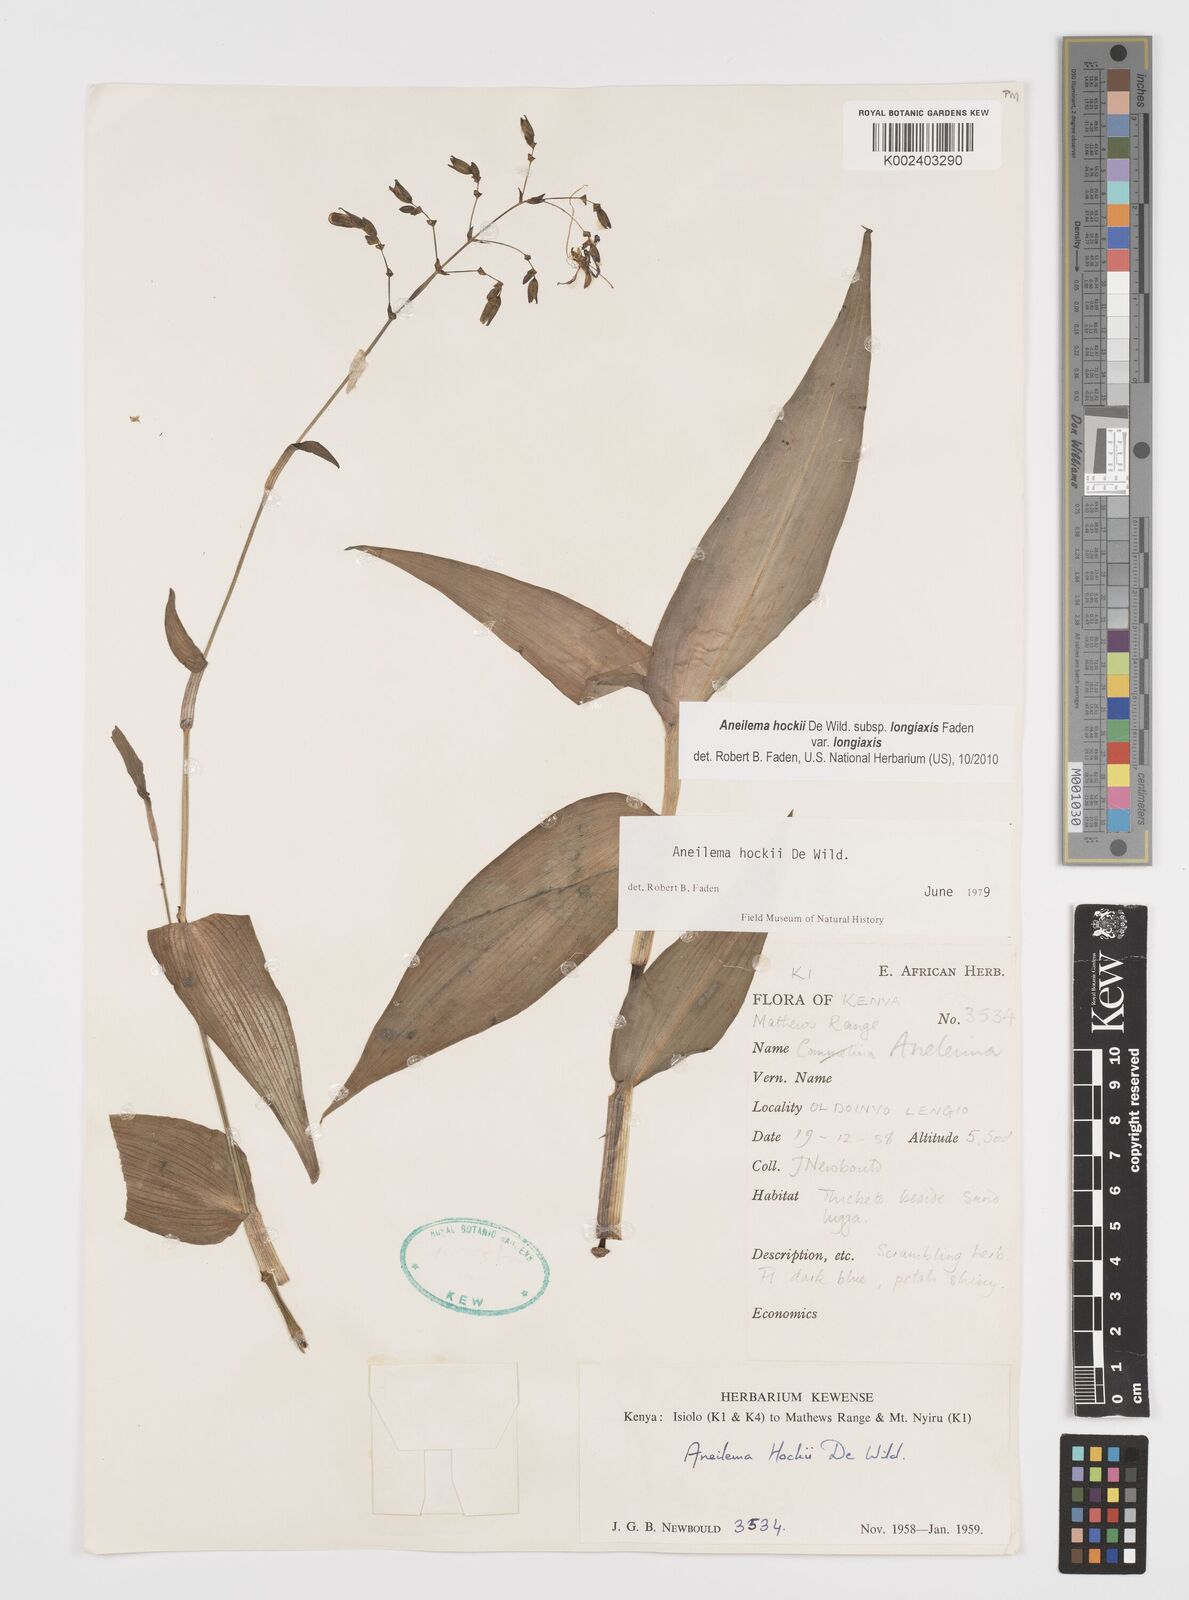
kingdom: Plantae
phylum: Tracheophyta
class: Liliopsida
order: Commelinales
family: Commelinaceae
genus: Aneilema
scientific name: Aneilema hockii
